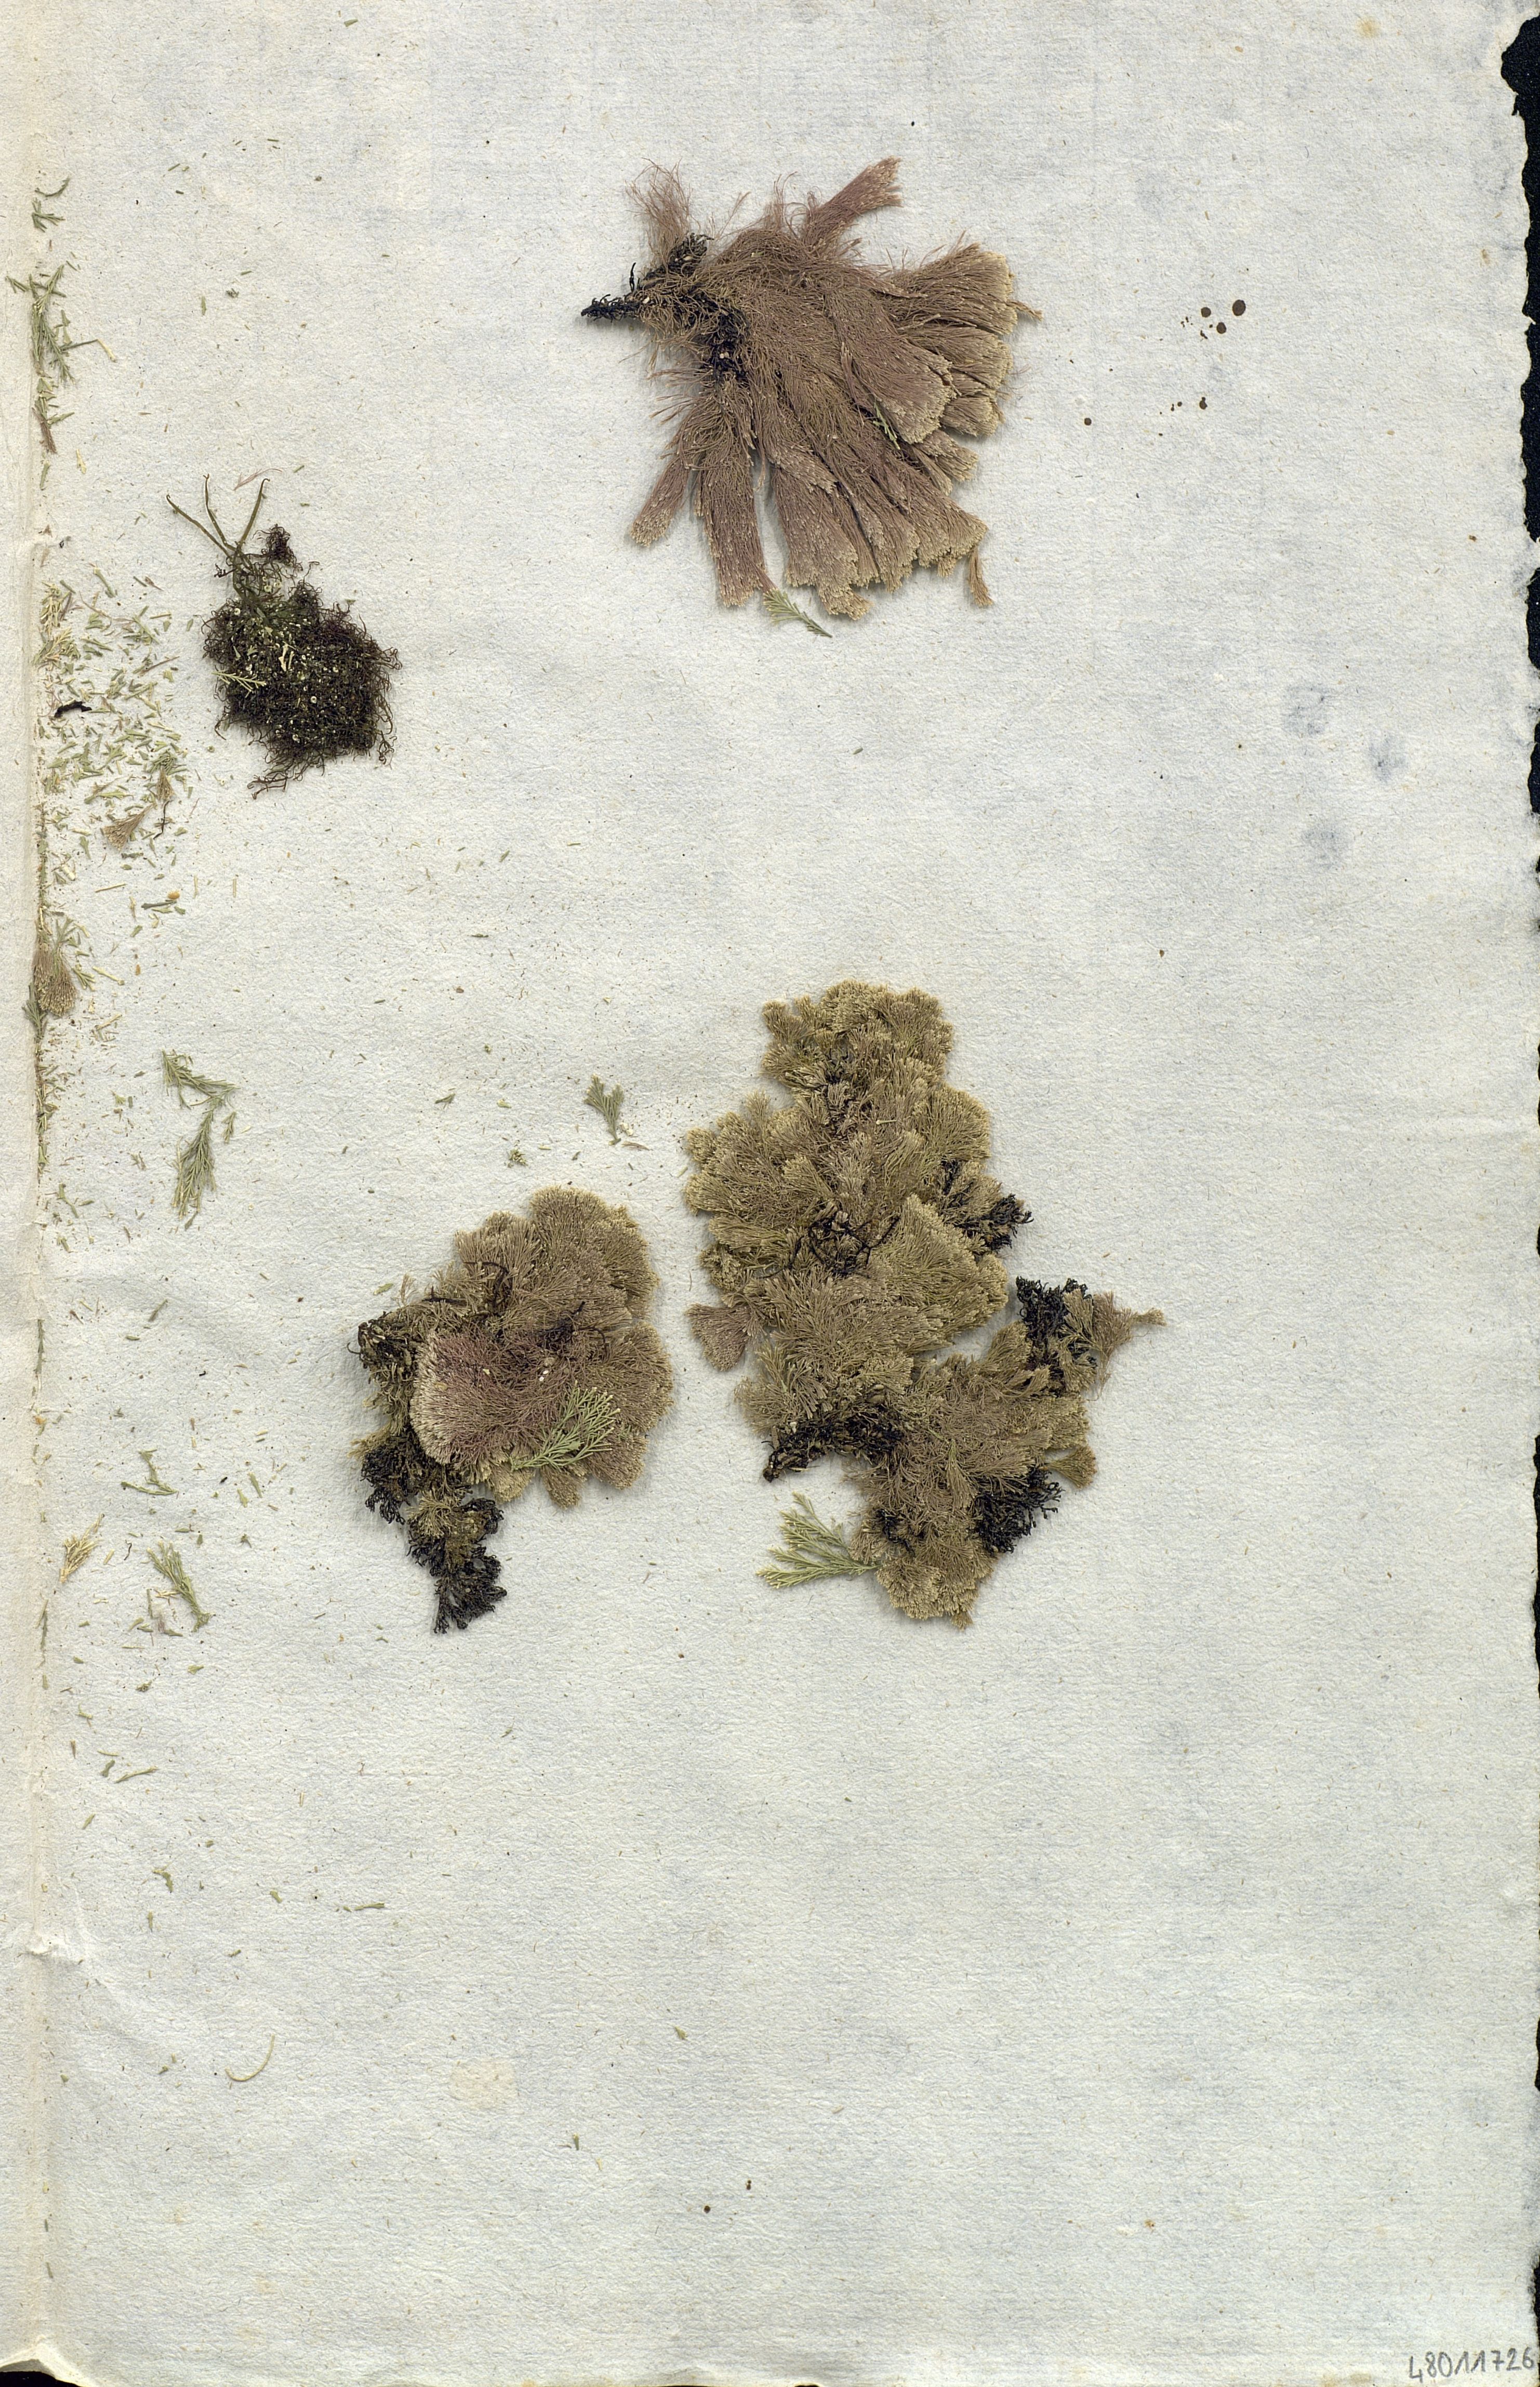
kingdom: Plantae
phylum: Rhodophyta
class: Florideophyceae
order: Corallinales
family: Corallinaceae
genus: Corallina
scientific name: Corallina
